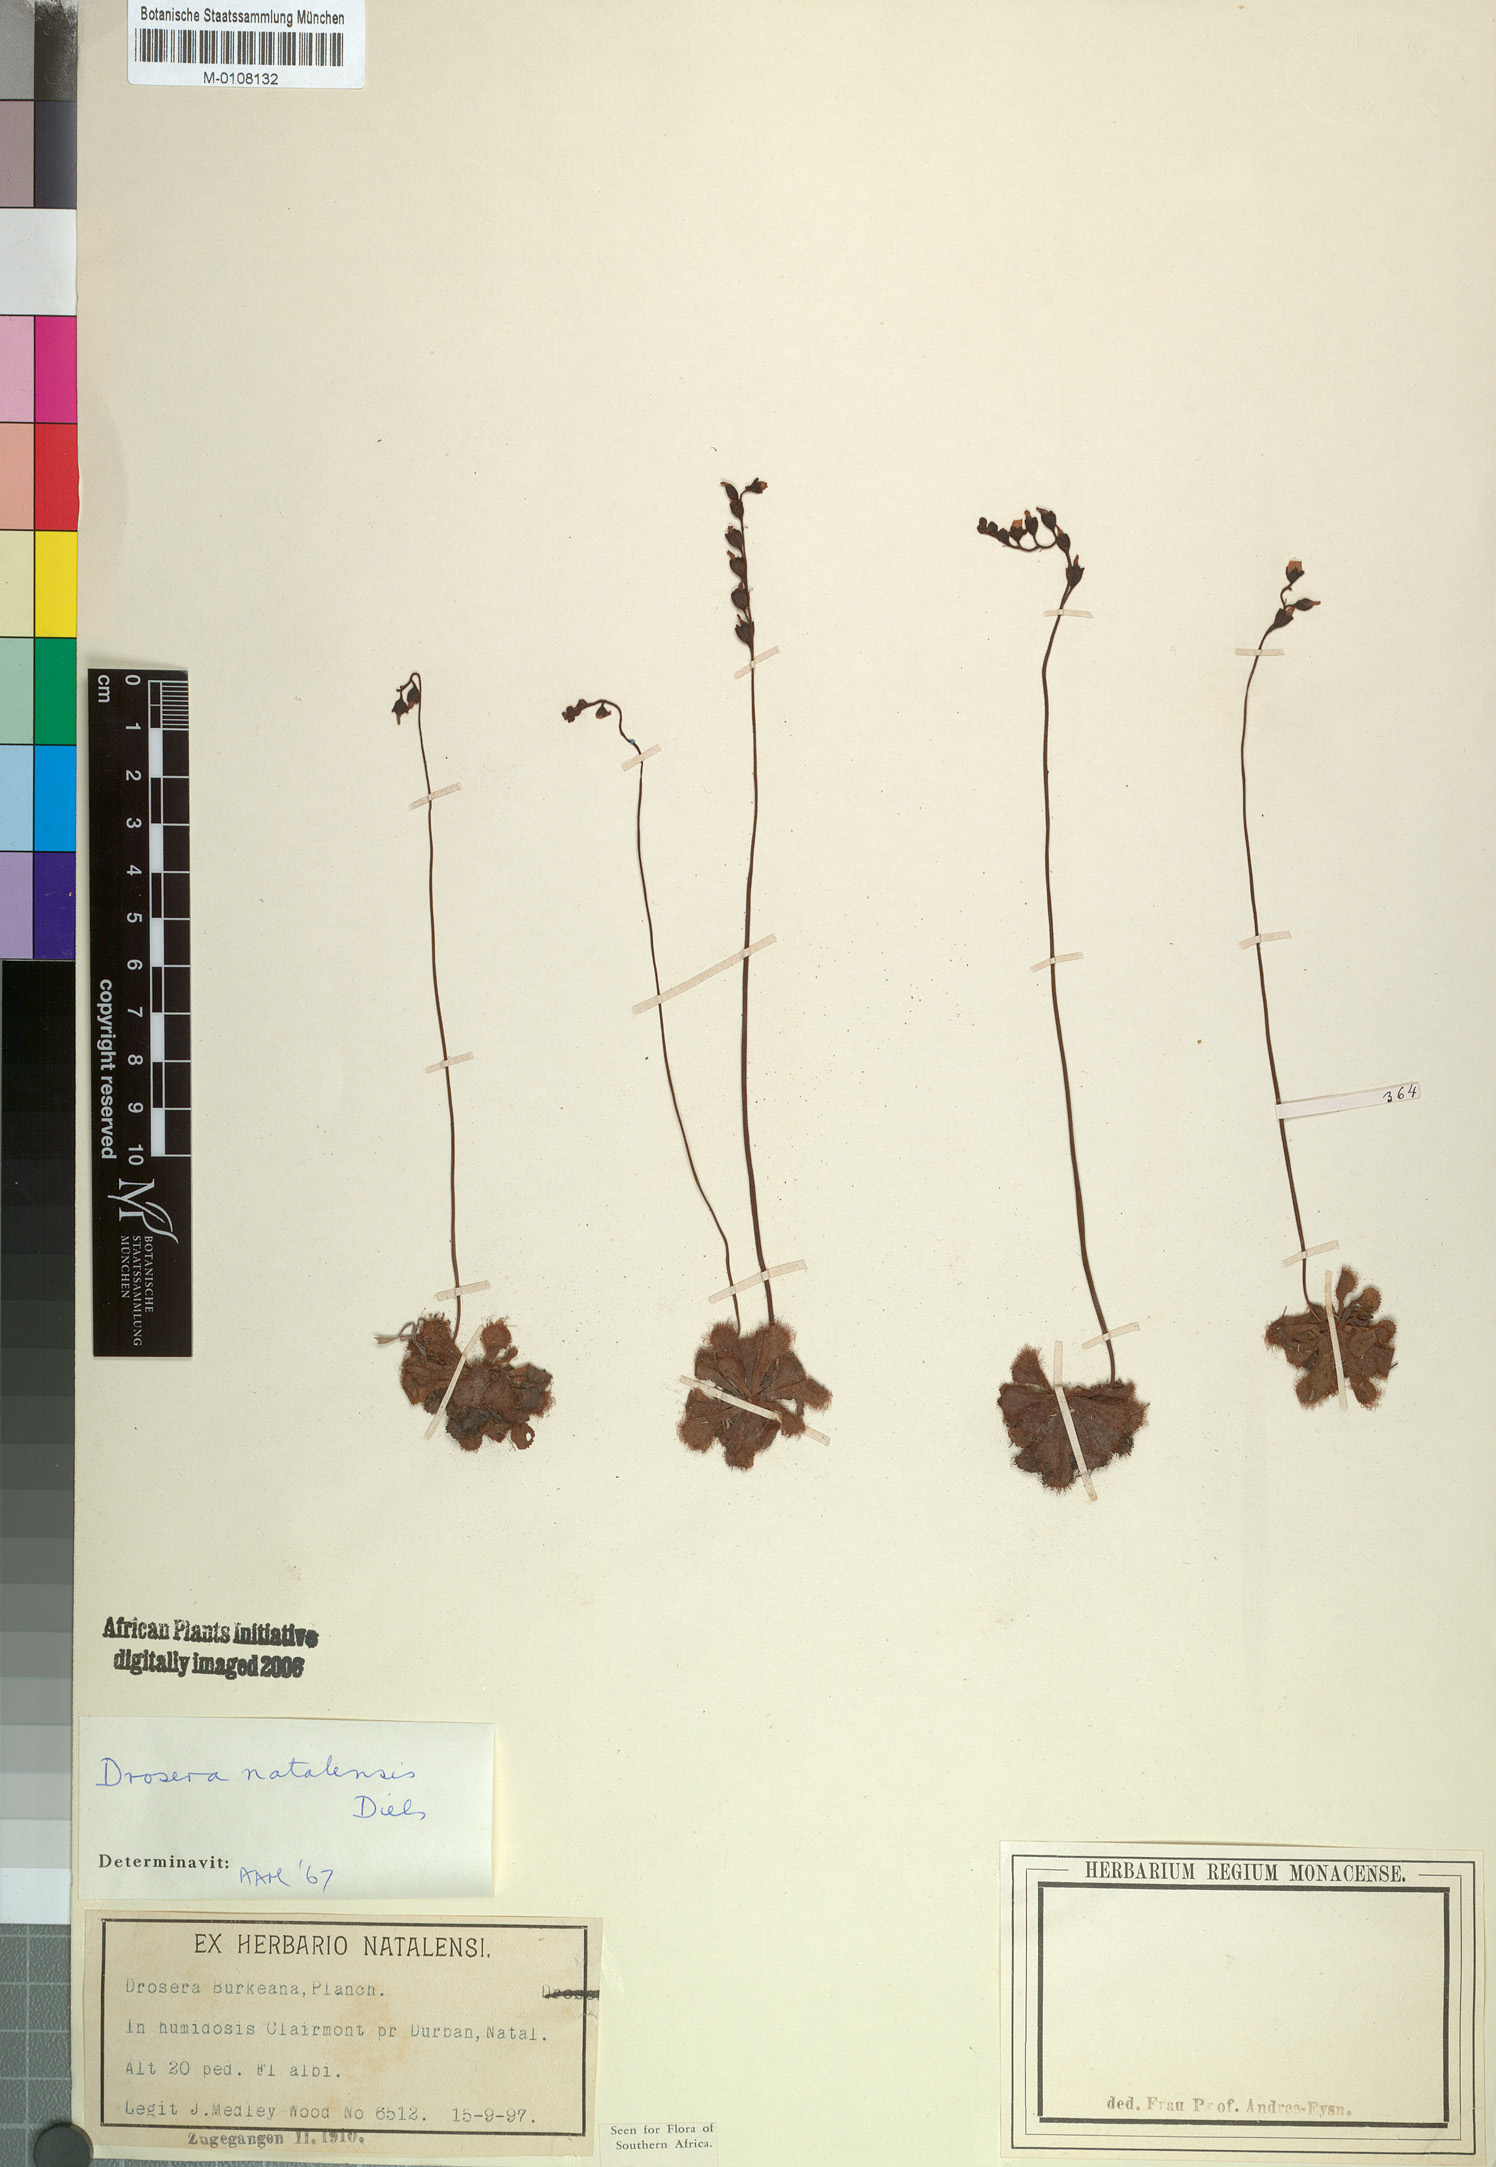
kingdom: Plantae
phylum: Tracheophyta
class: Magnoliopsida
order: Caryophyllales
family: Droseraceae
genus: Drosera
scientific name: Drosera natalensis
